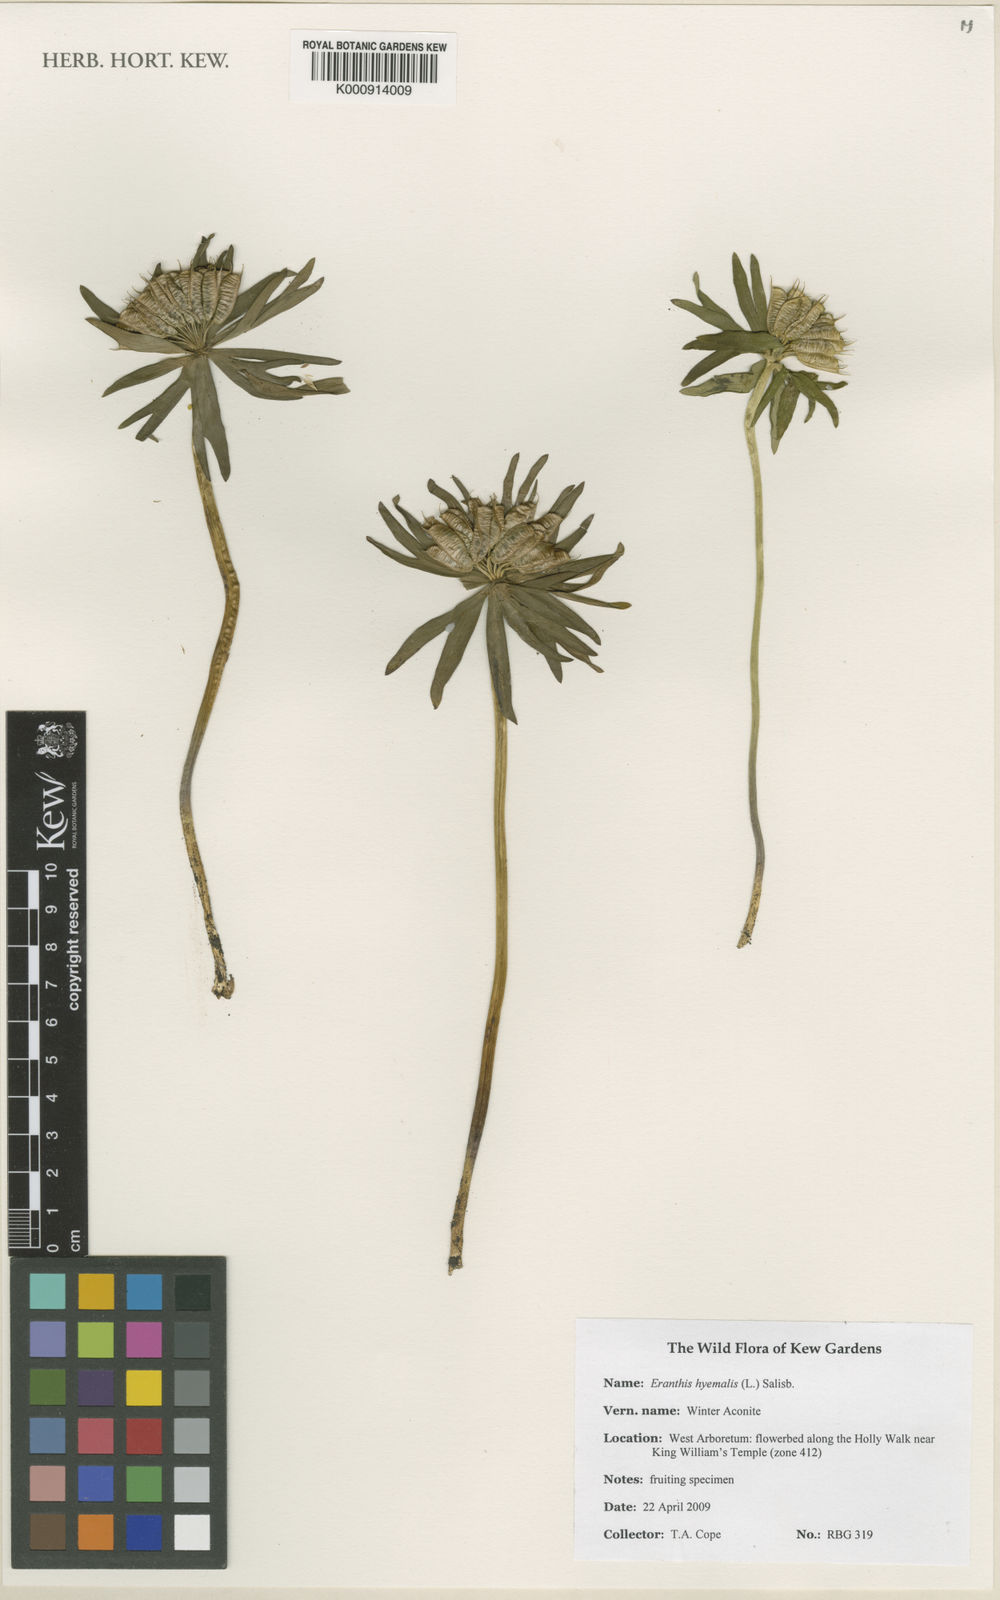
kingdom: Plantae
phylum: Tracheophyta
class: Magnoliopsida
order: Ranunculales
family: Ranunculaceae
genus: Eranthis
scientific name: Eranthis hyemalis
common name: Winter aconite
